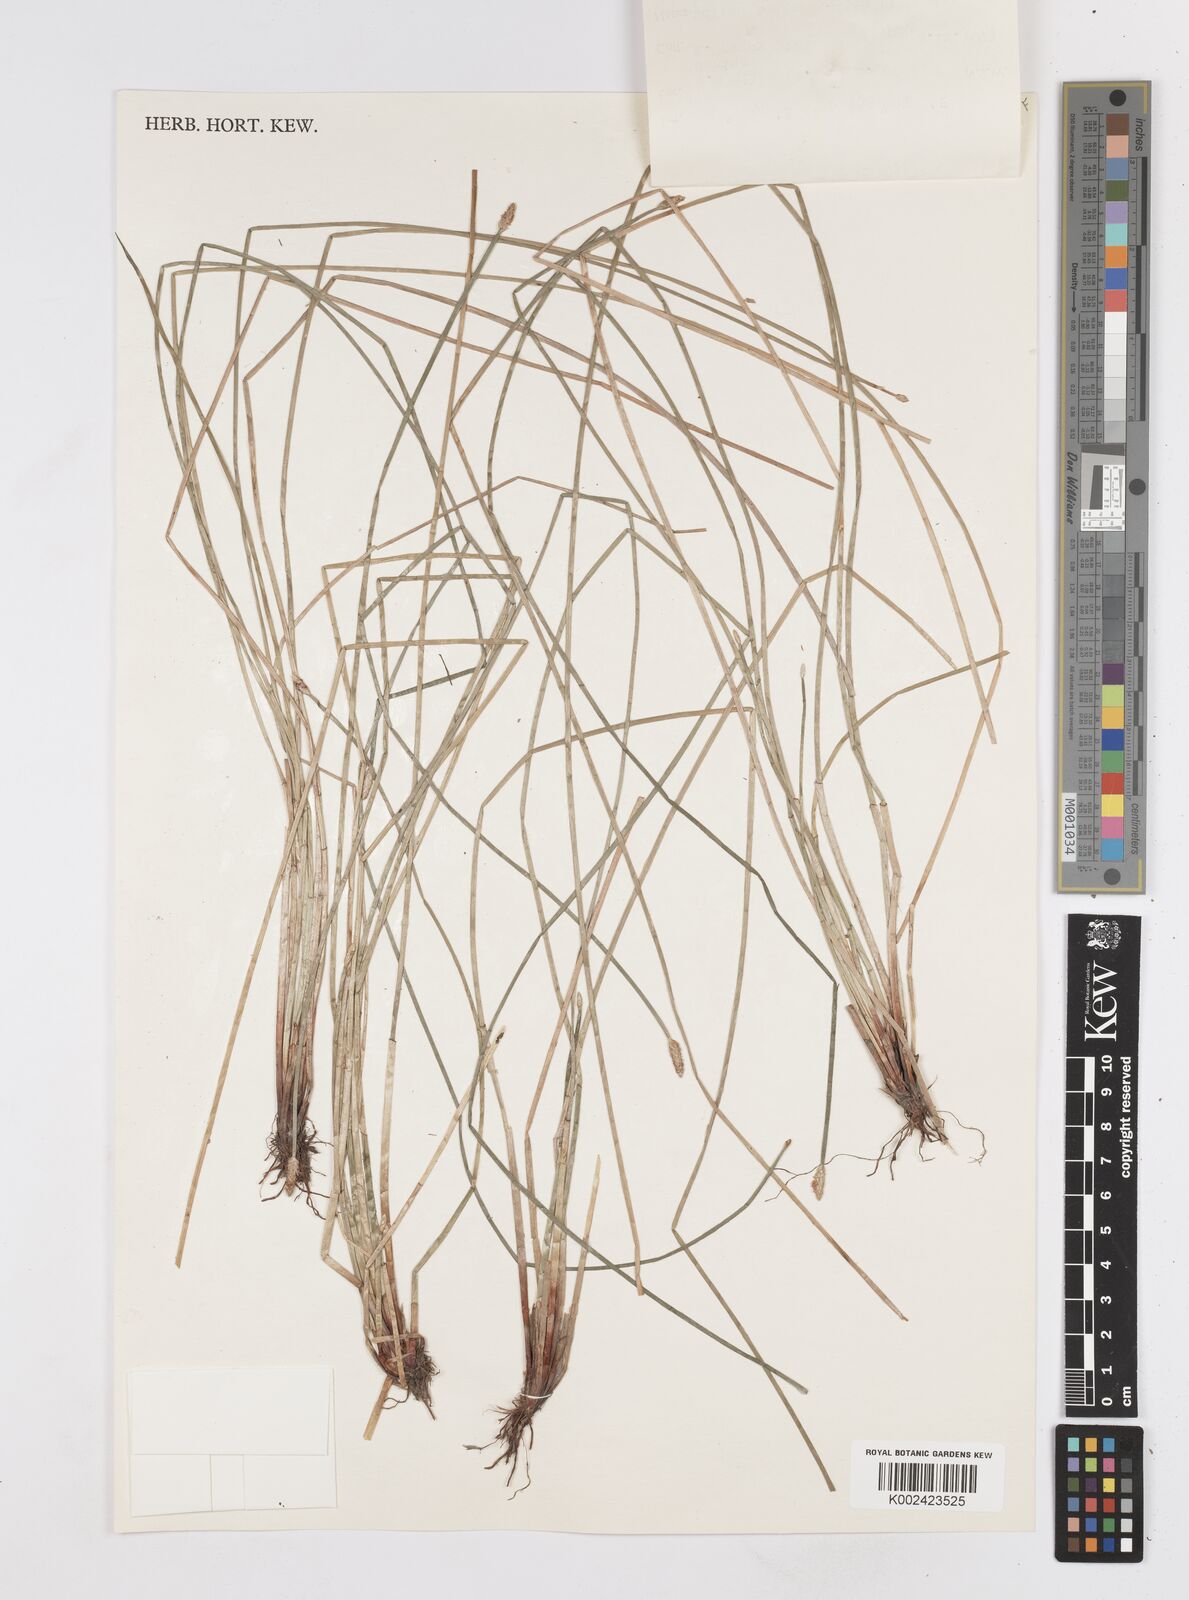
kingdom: Plantae
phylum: Tracheophyta
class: Liliopsida
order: Poales
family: Cyperaceae
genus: Eleocharis
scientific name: Eleocharis
